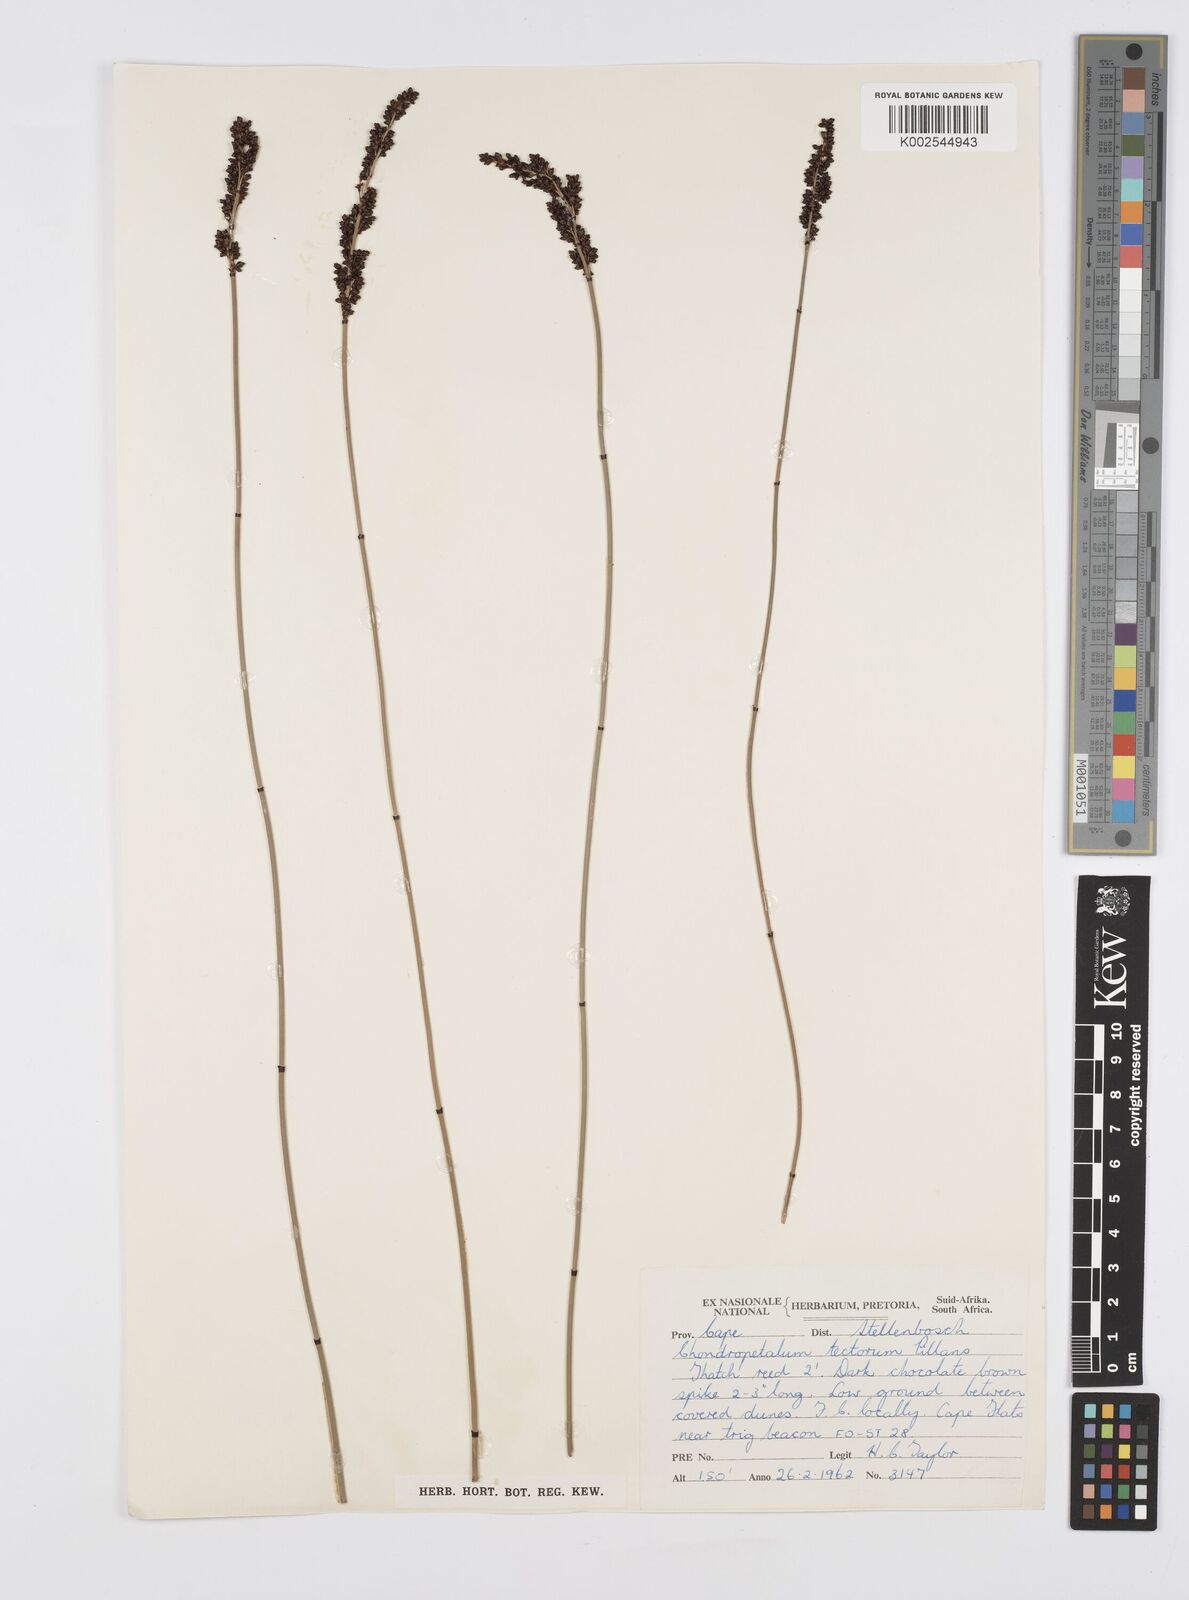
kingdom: Plantae
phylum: Tracheophyta
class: Liliopsida
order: Poales
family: Restionaceae
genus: Elegia
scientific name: Elegia tectorum
